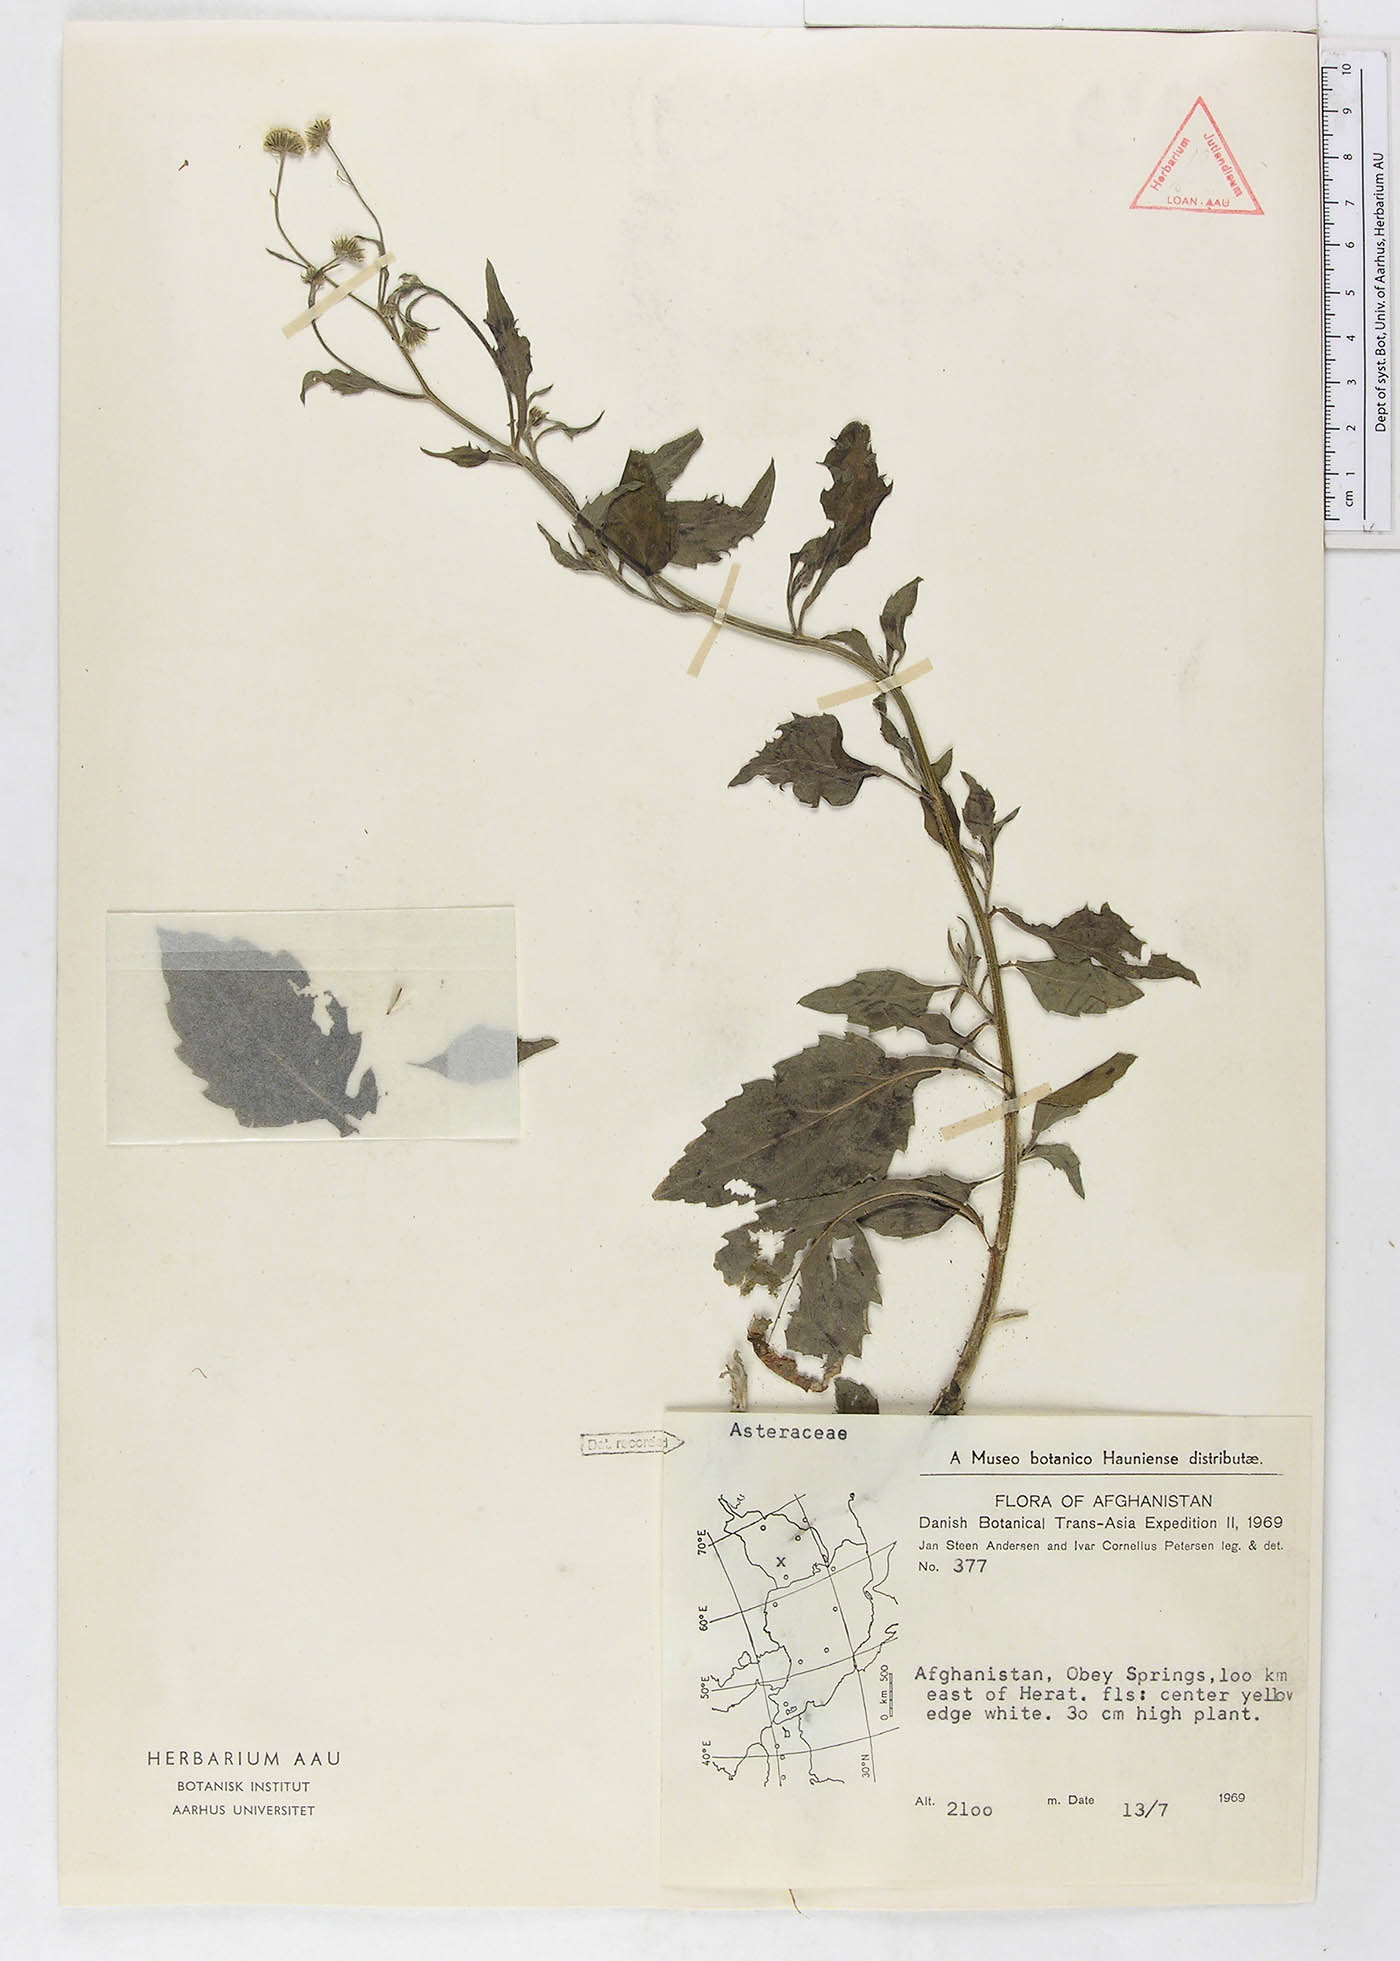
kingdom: Plantae
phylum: Tracheophyta
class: Magnoliopsida
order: Asterales
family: Asteraceae
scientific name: Asteraceae
